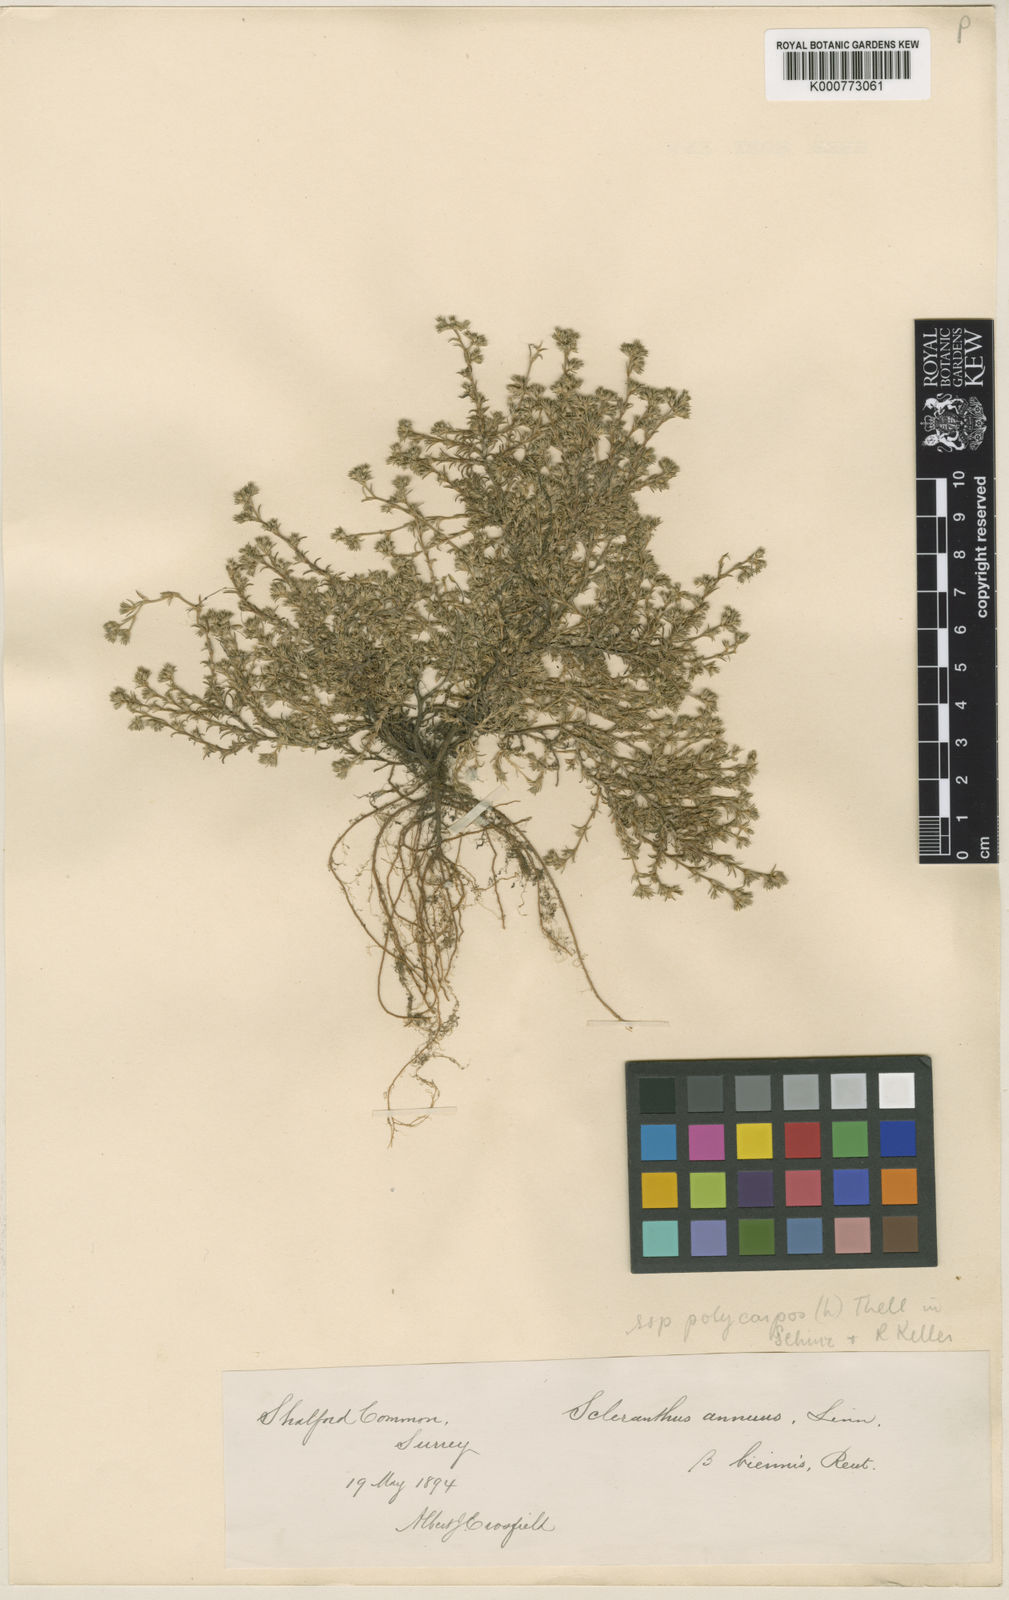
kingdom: Plantae
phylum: Tracheophyta
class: Magnoliopsida
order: Caryophyllales
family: Caryophyllaceae
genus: Scleranthus
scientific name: Scleranthus annuus
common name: Annual knawel
